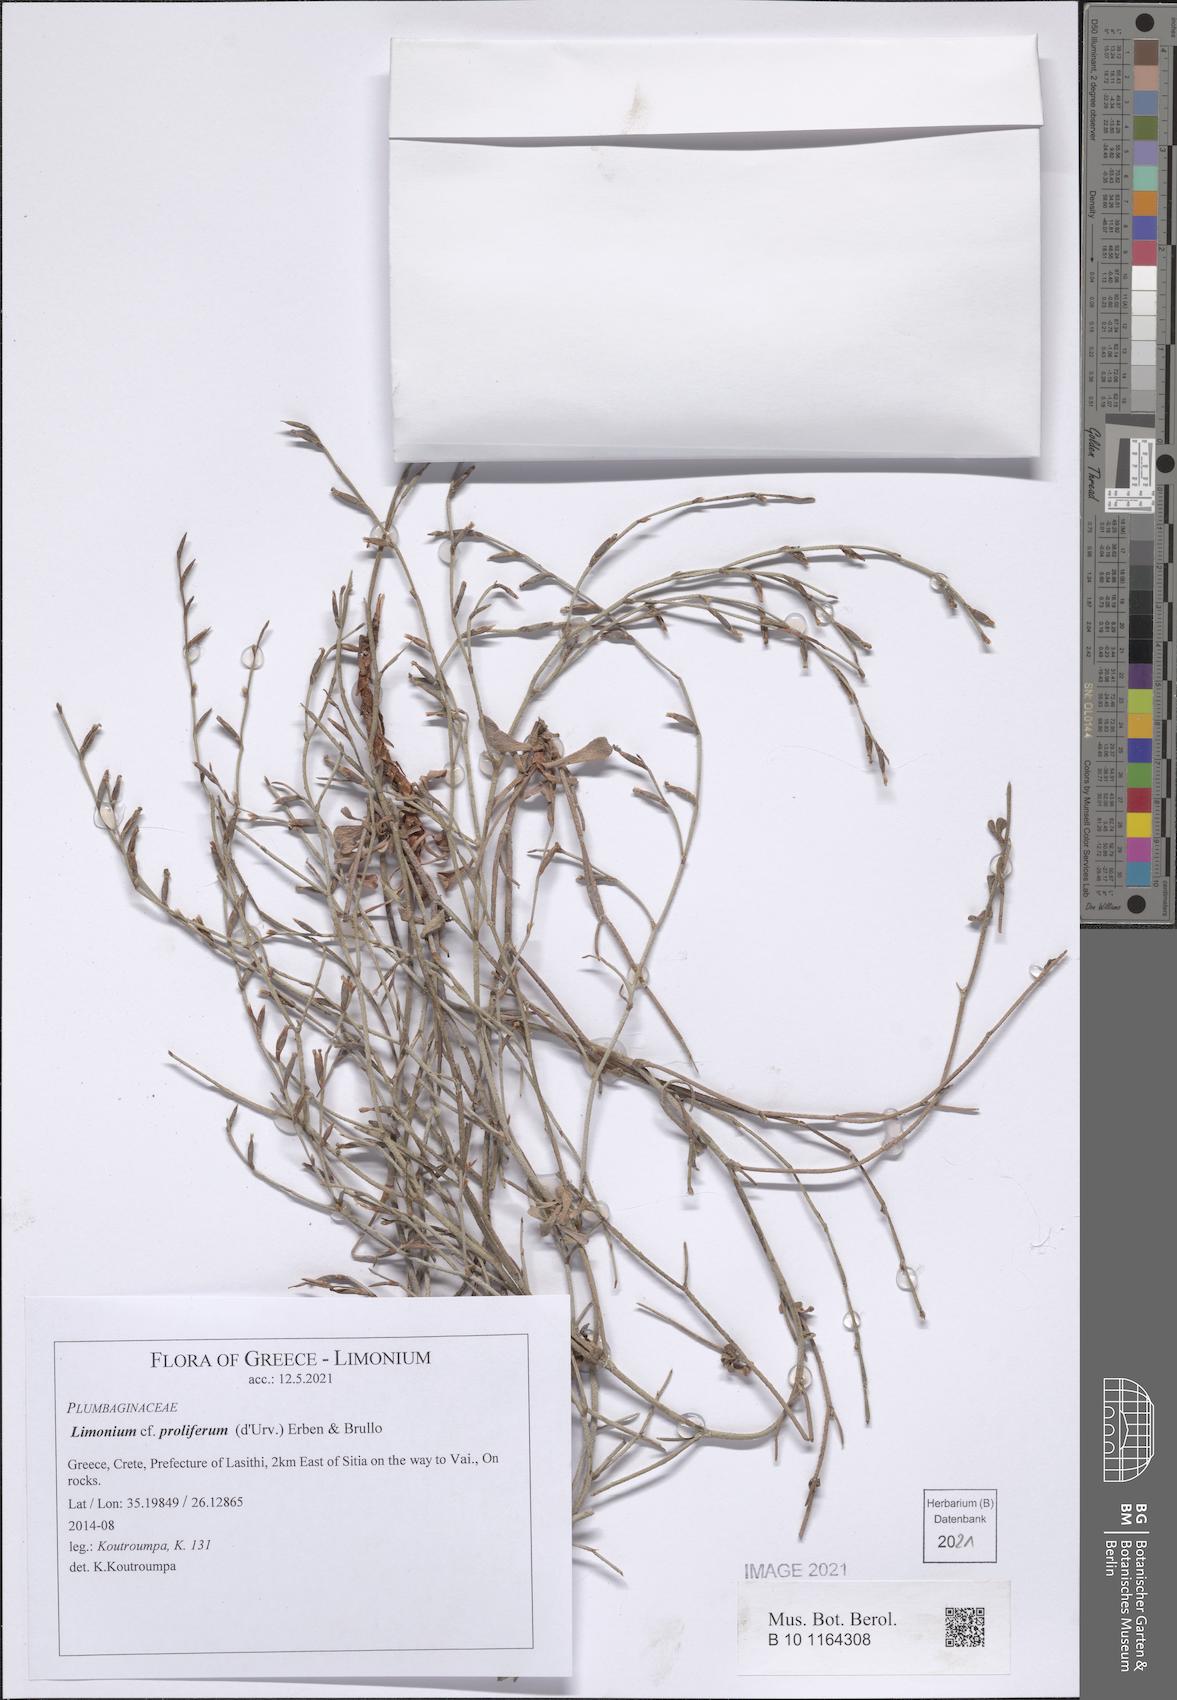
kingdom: Plantae
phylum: Tracheophyta
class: Magnoliopsida
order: Caryophyllales
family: Plumbaginaceae
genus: Limonium
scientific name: Limonium proliferum
